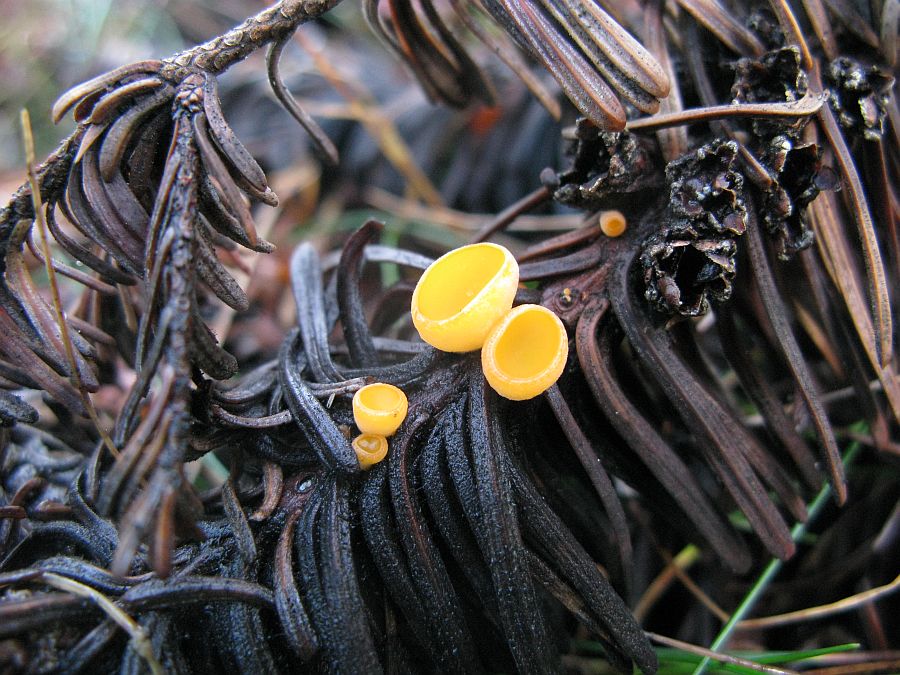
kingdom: Fungi
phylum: Ascomycota
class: Pezizomycetes
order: Pezizales
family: Sarcoscyphaceae
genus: Pithya
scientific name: Pithya vulgaris
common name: stor dukatbæger
